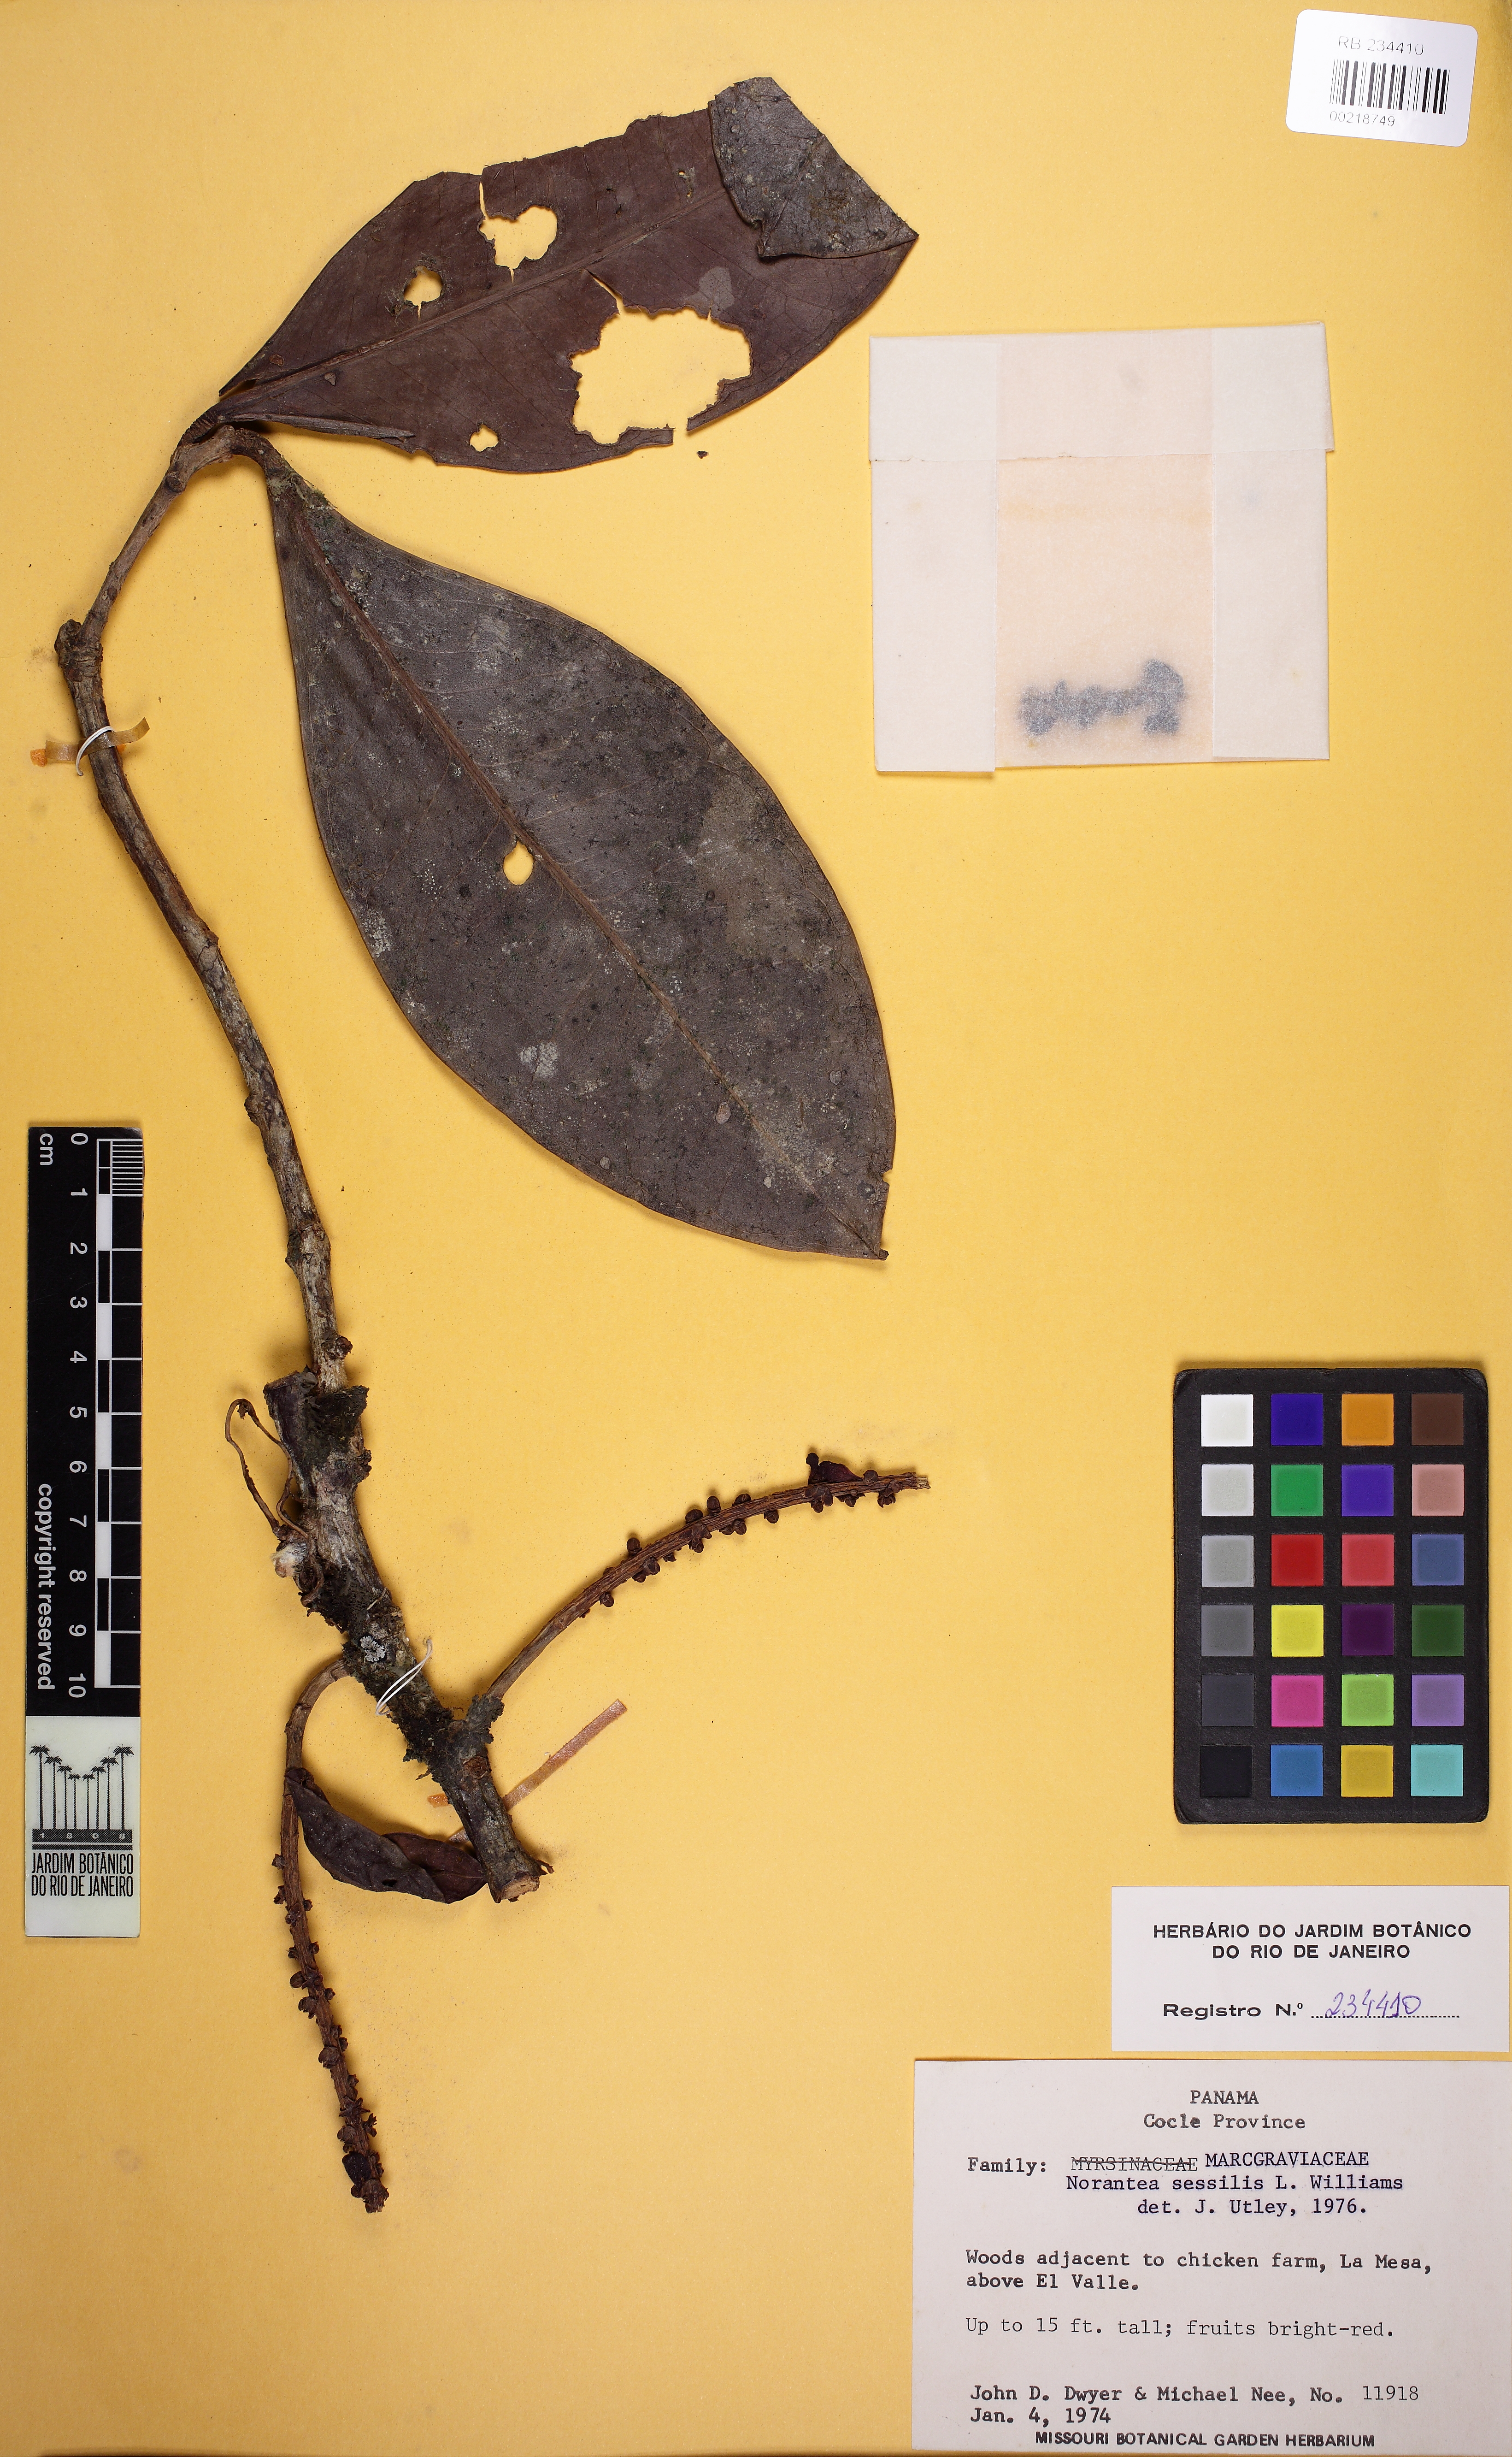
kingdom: Plantae
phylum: Tracheophyta
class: Magnoliopsida
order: Ericales
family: Marcgraviaceae
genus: Sarcopera
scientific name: Sarcopera sessiliflora
